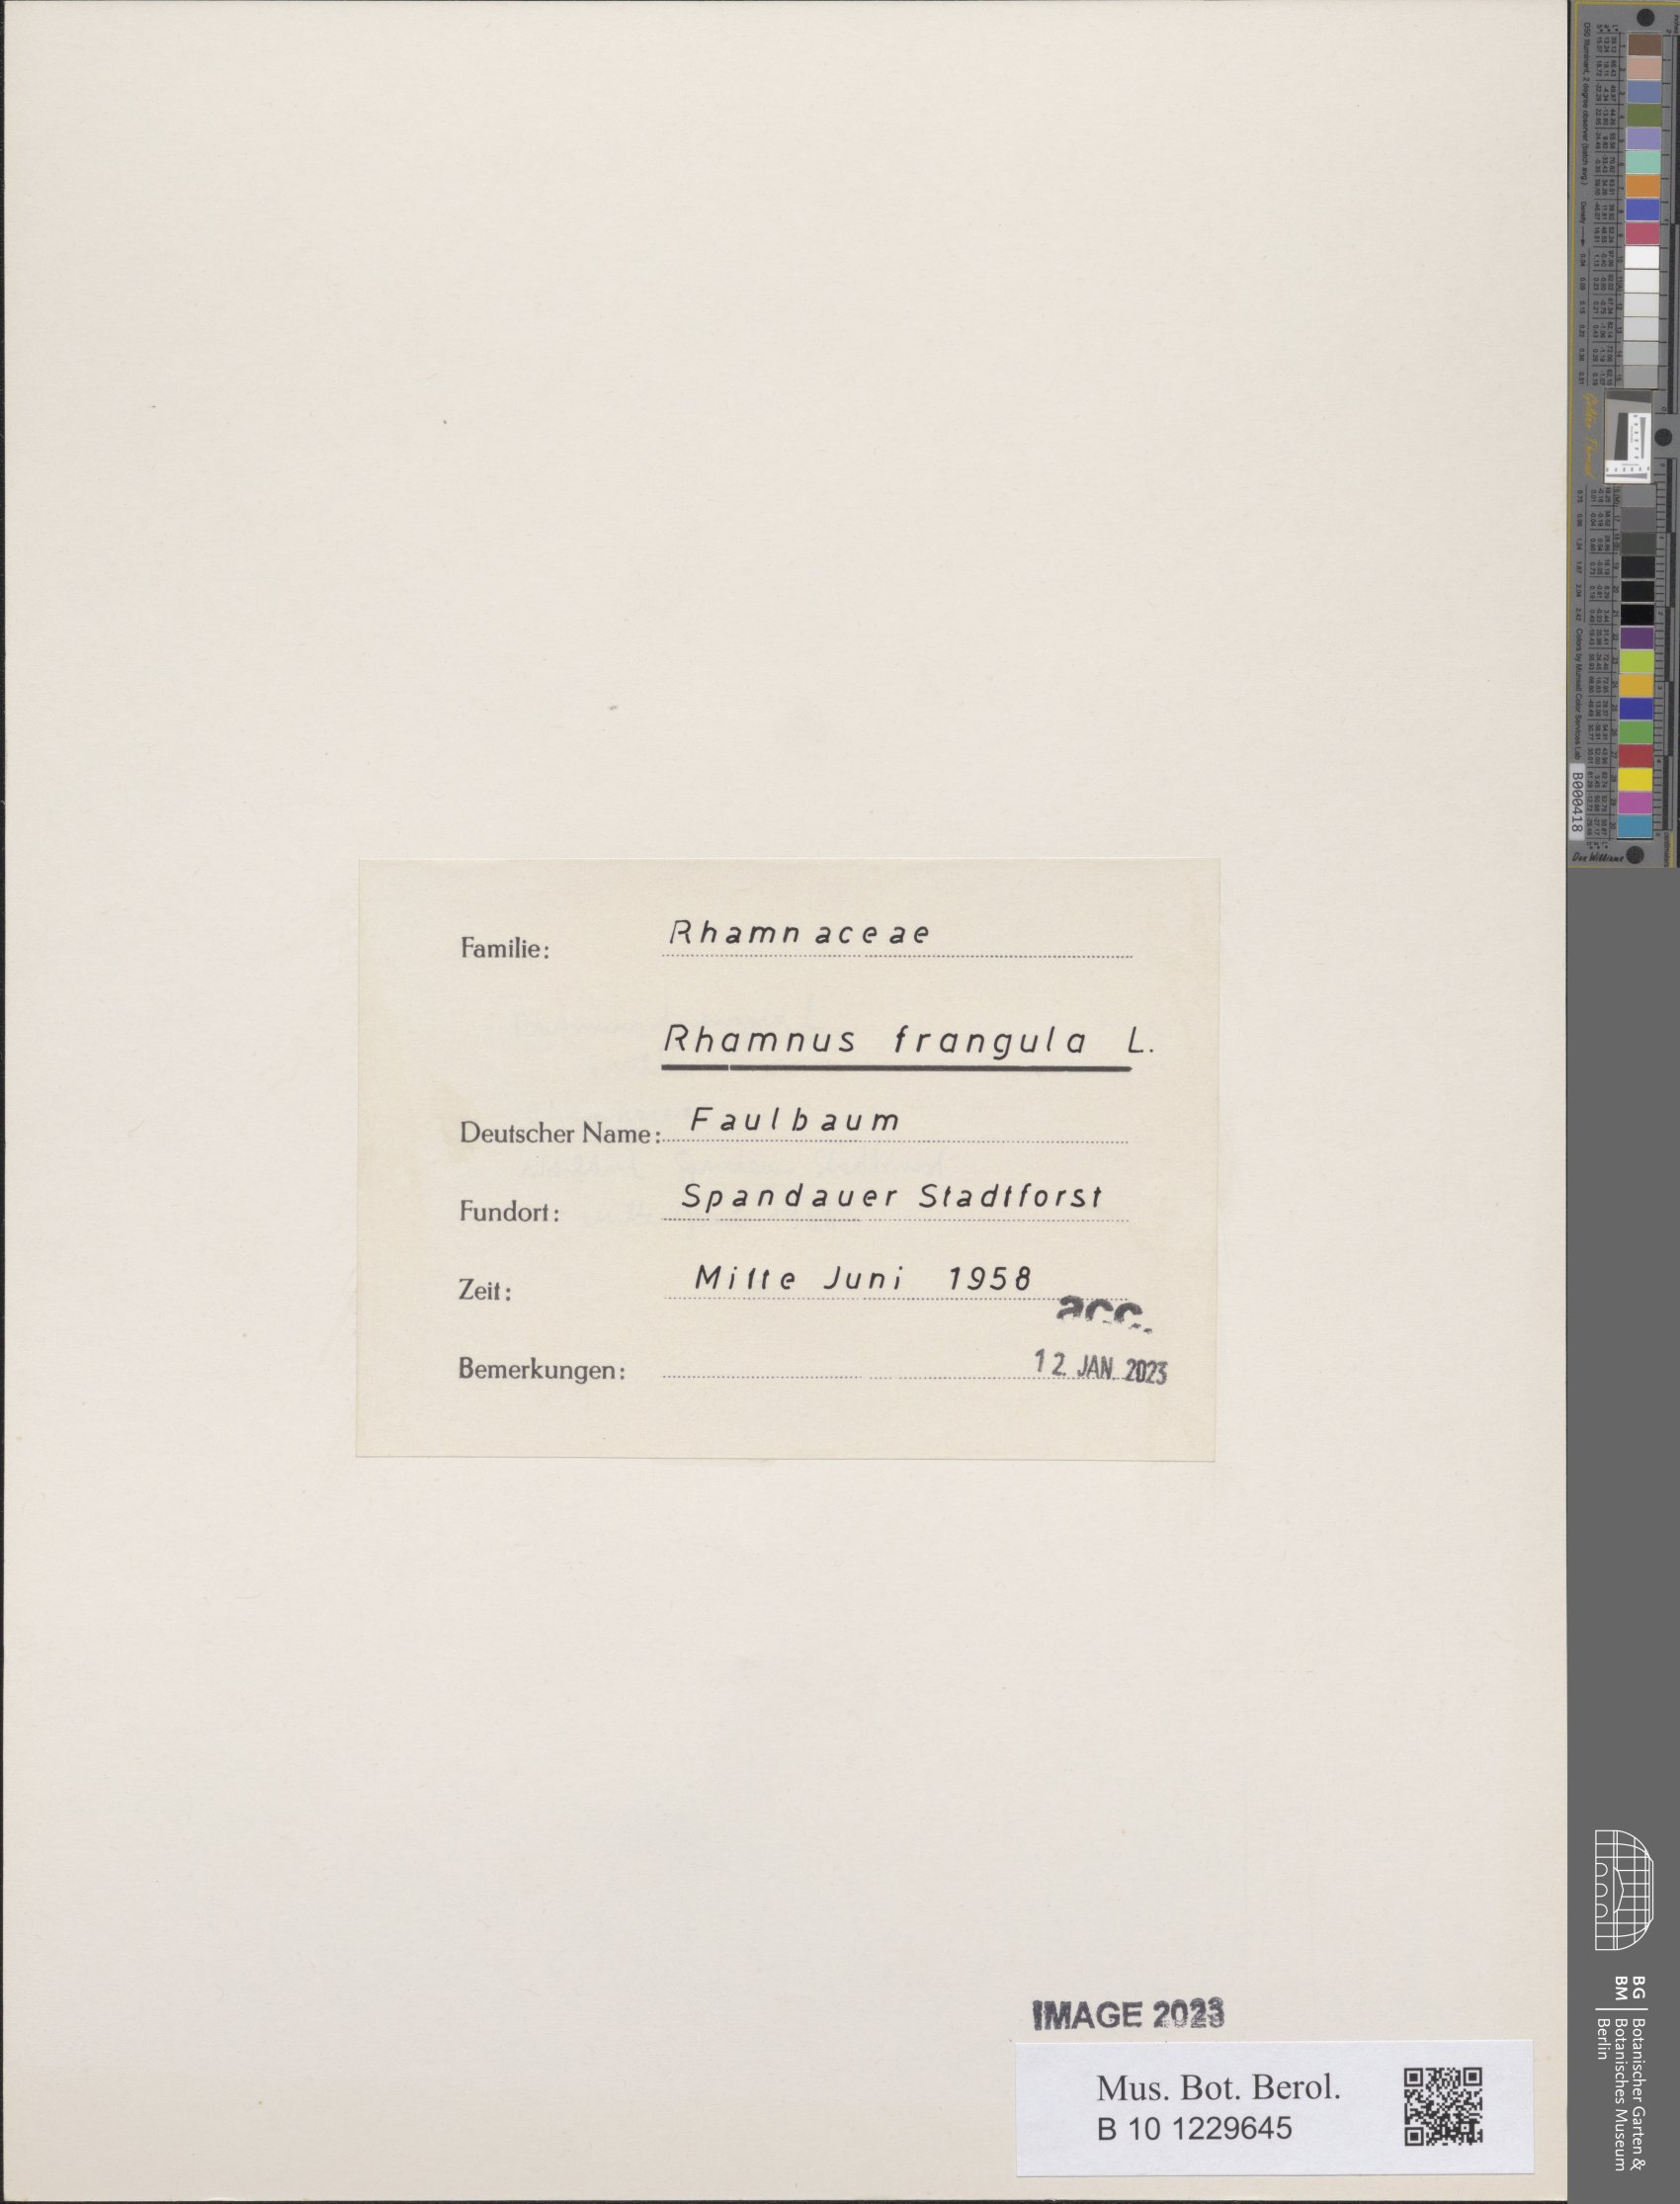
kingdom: Plantae
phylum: Tracheophyta
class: Magnoliopsida
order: Rosales
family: Rhamnaceae
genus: Frangula
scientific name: Frangula alnus
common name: Alder buckthorn
